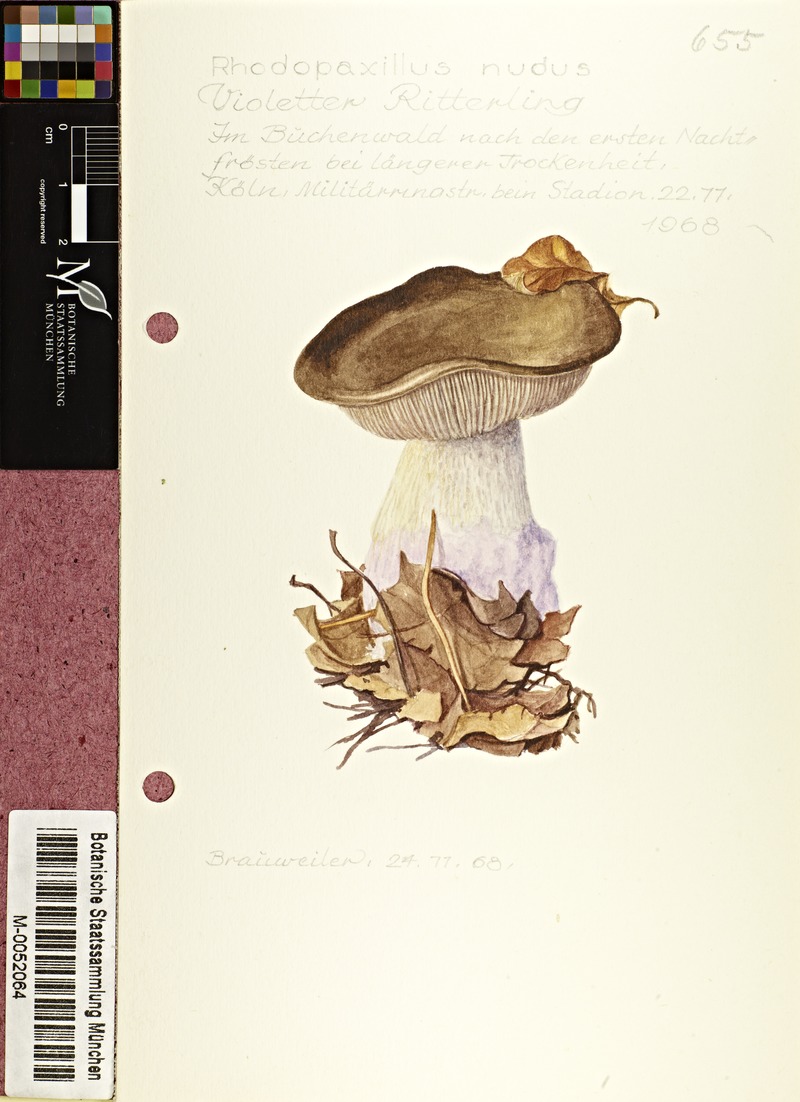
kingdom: Fungi
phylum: Basidiomycota
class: Agaricomycetes
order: Agaricales
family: Tricholomataceae
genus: Lepista
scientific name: Lepista nuda
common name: Wood blewit
